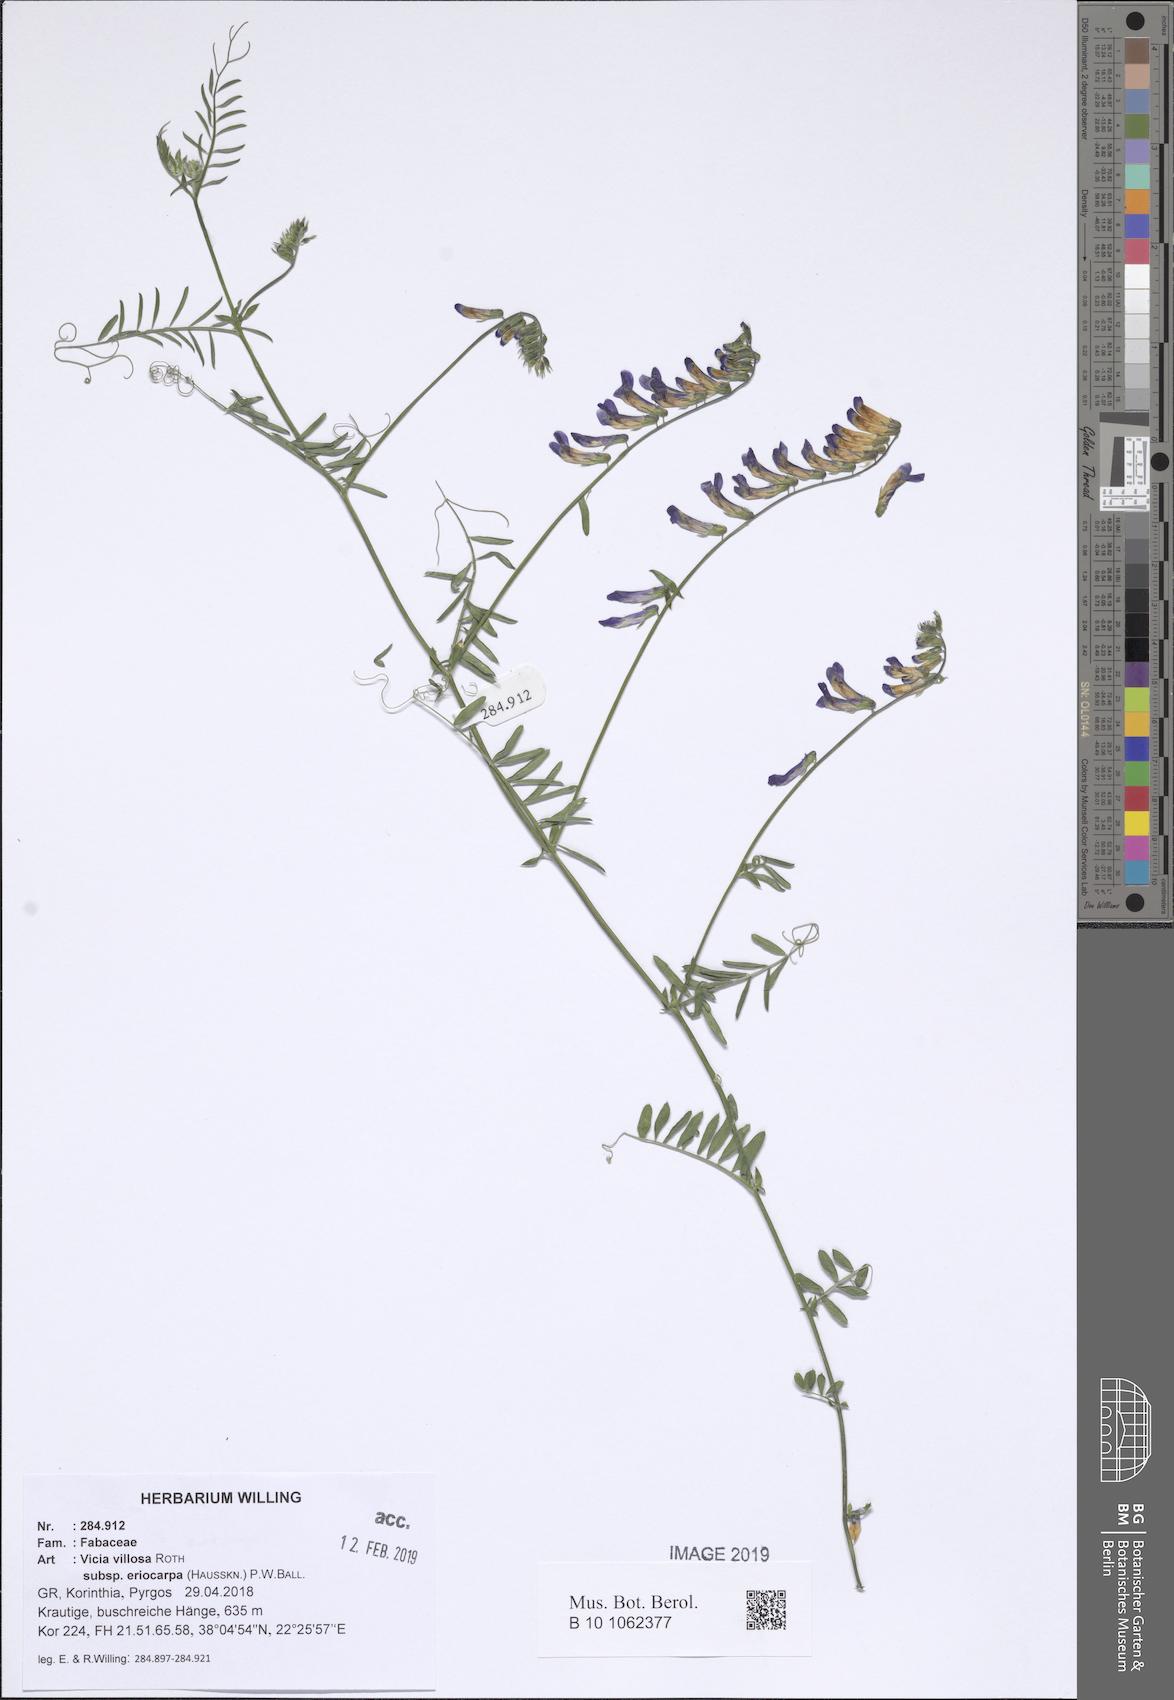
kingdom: Plantae
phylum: Tracheophyta
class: Magnoliopsida
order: Fabales
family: Fabaceae
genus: Vicia
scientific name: Vicia eriocarpa
